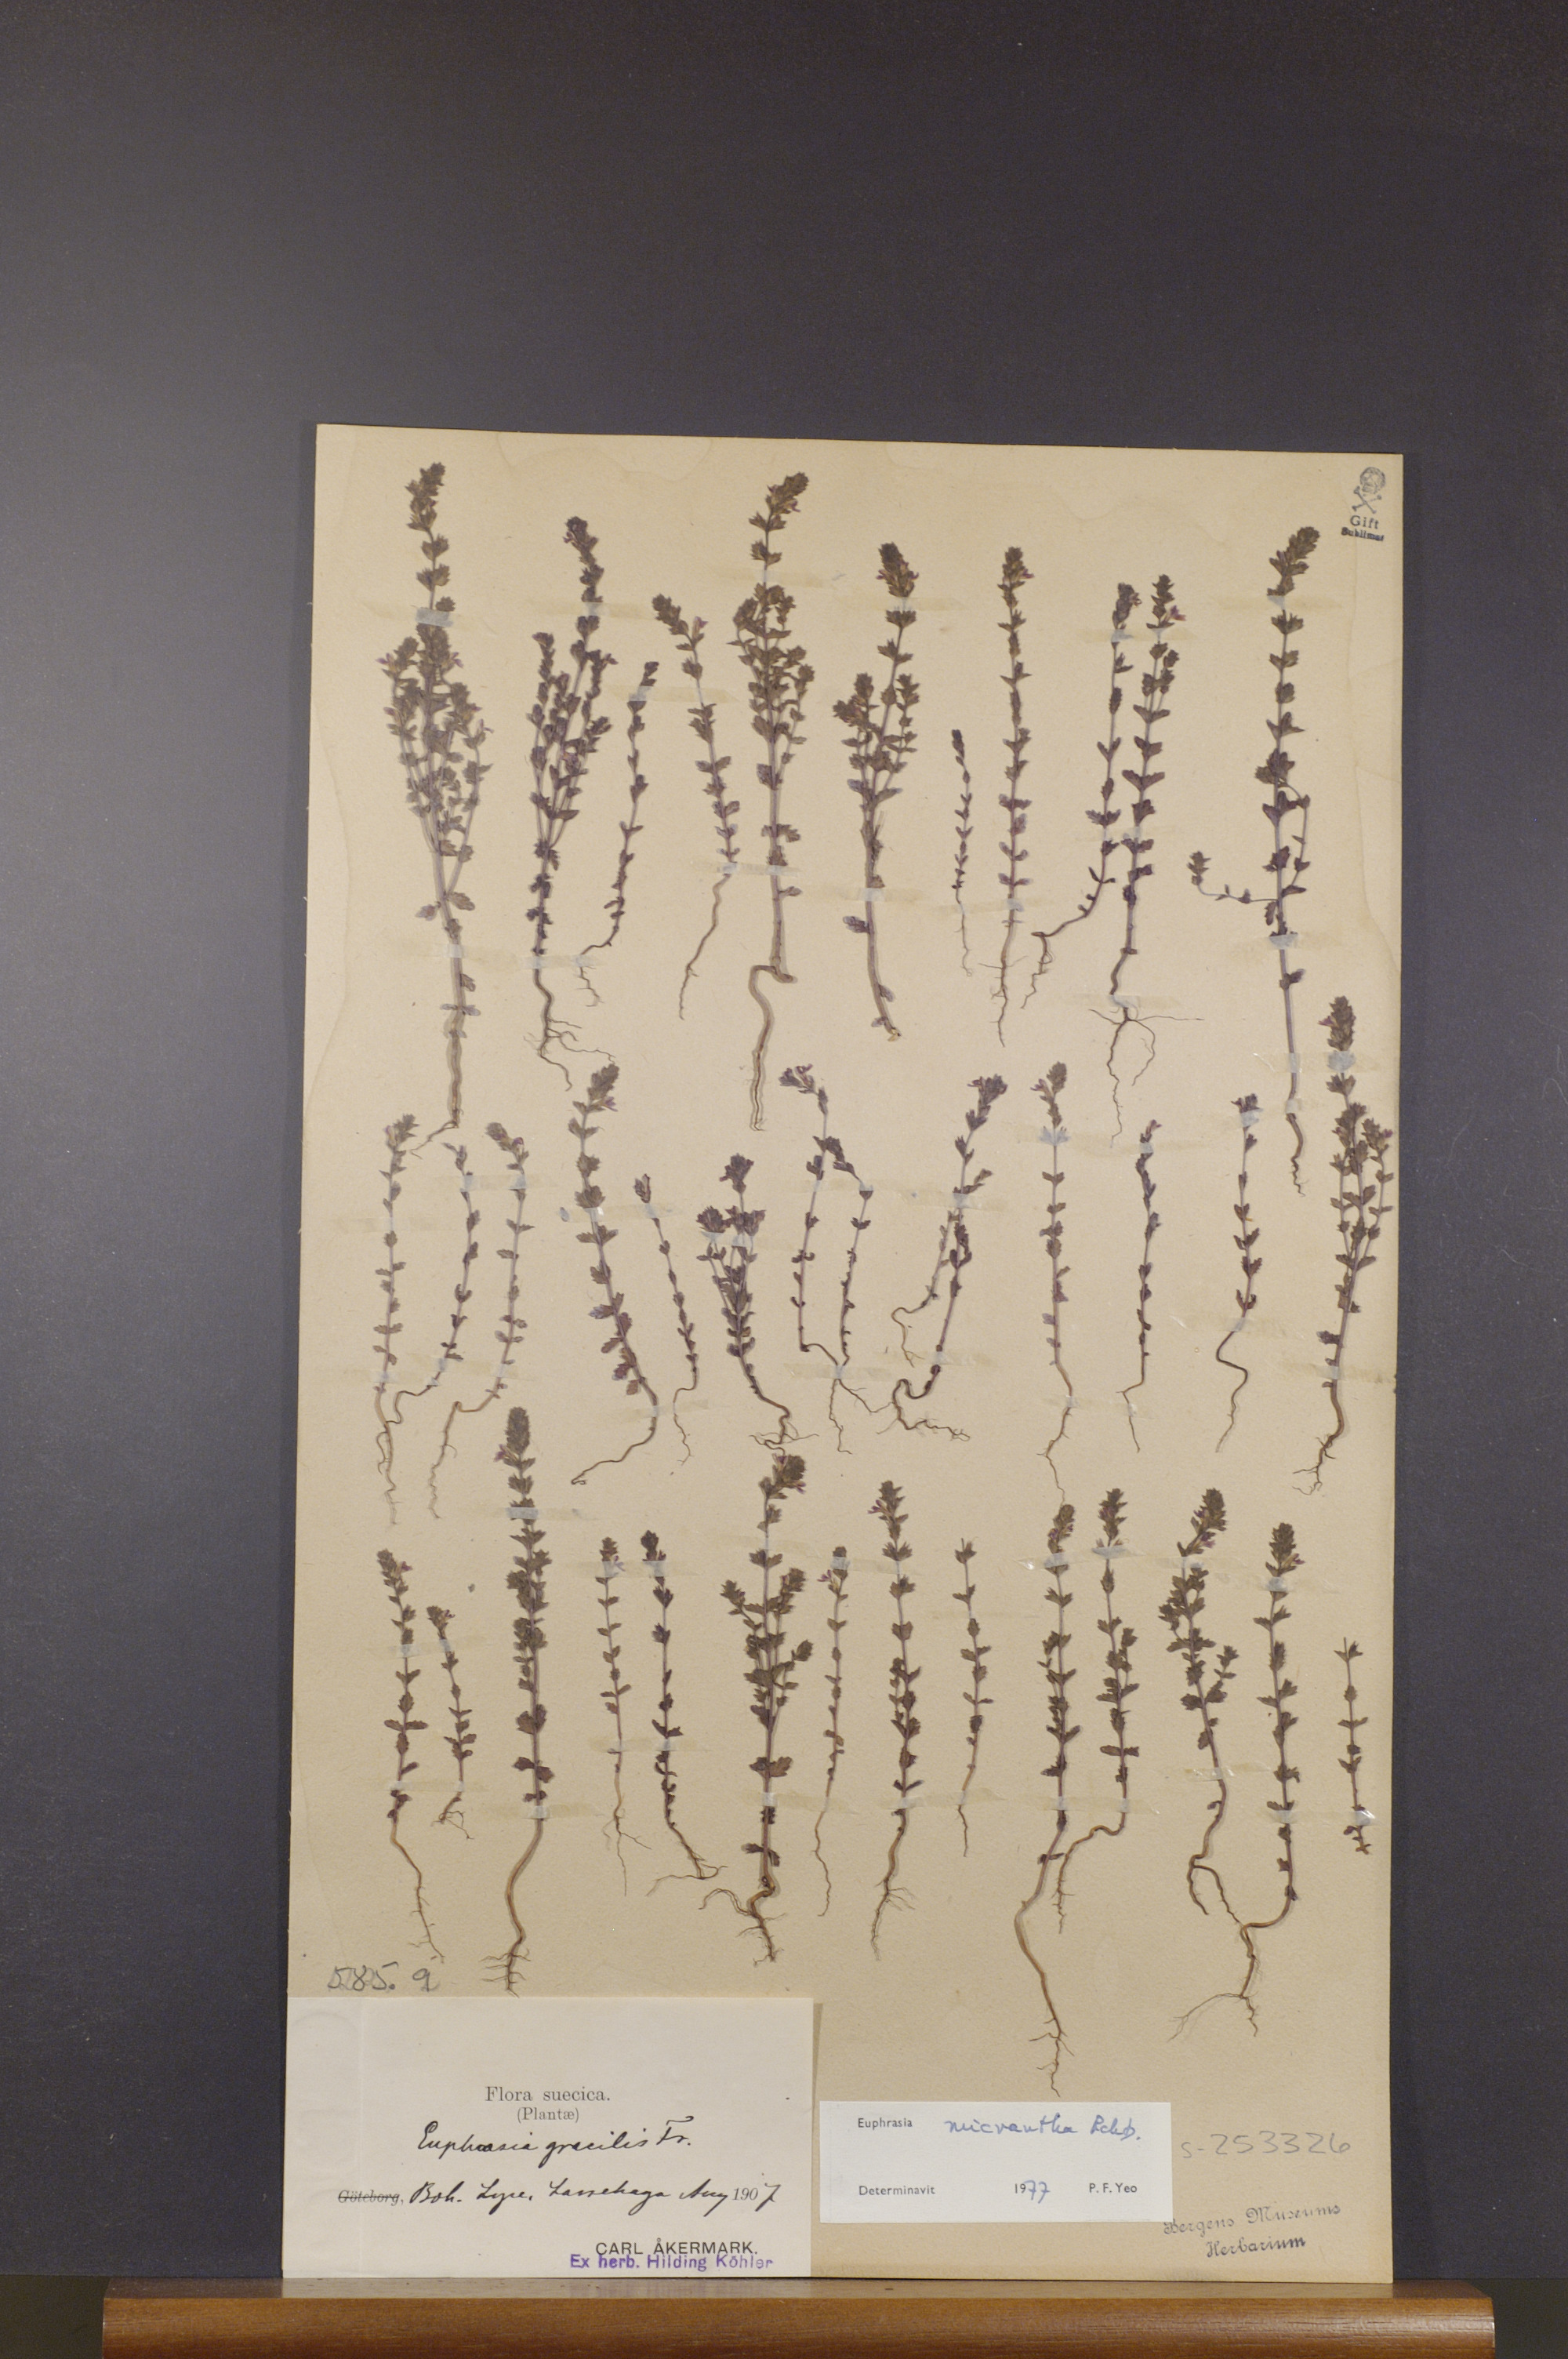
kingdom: Plantae
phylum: Tracheophyta
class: Magnoliopsida
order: Lamiales
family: Orobanchaceae
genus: Euphrasia
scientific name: Euphrasia micrantha
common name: Northern eyebright
